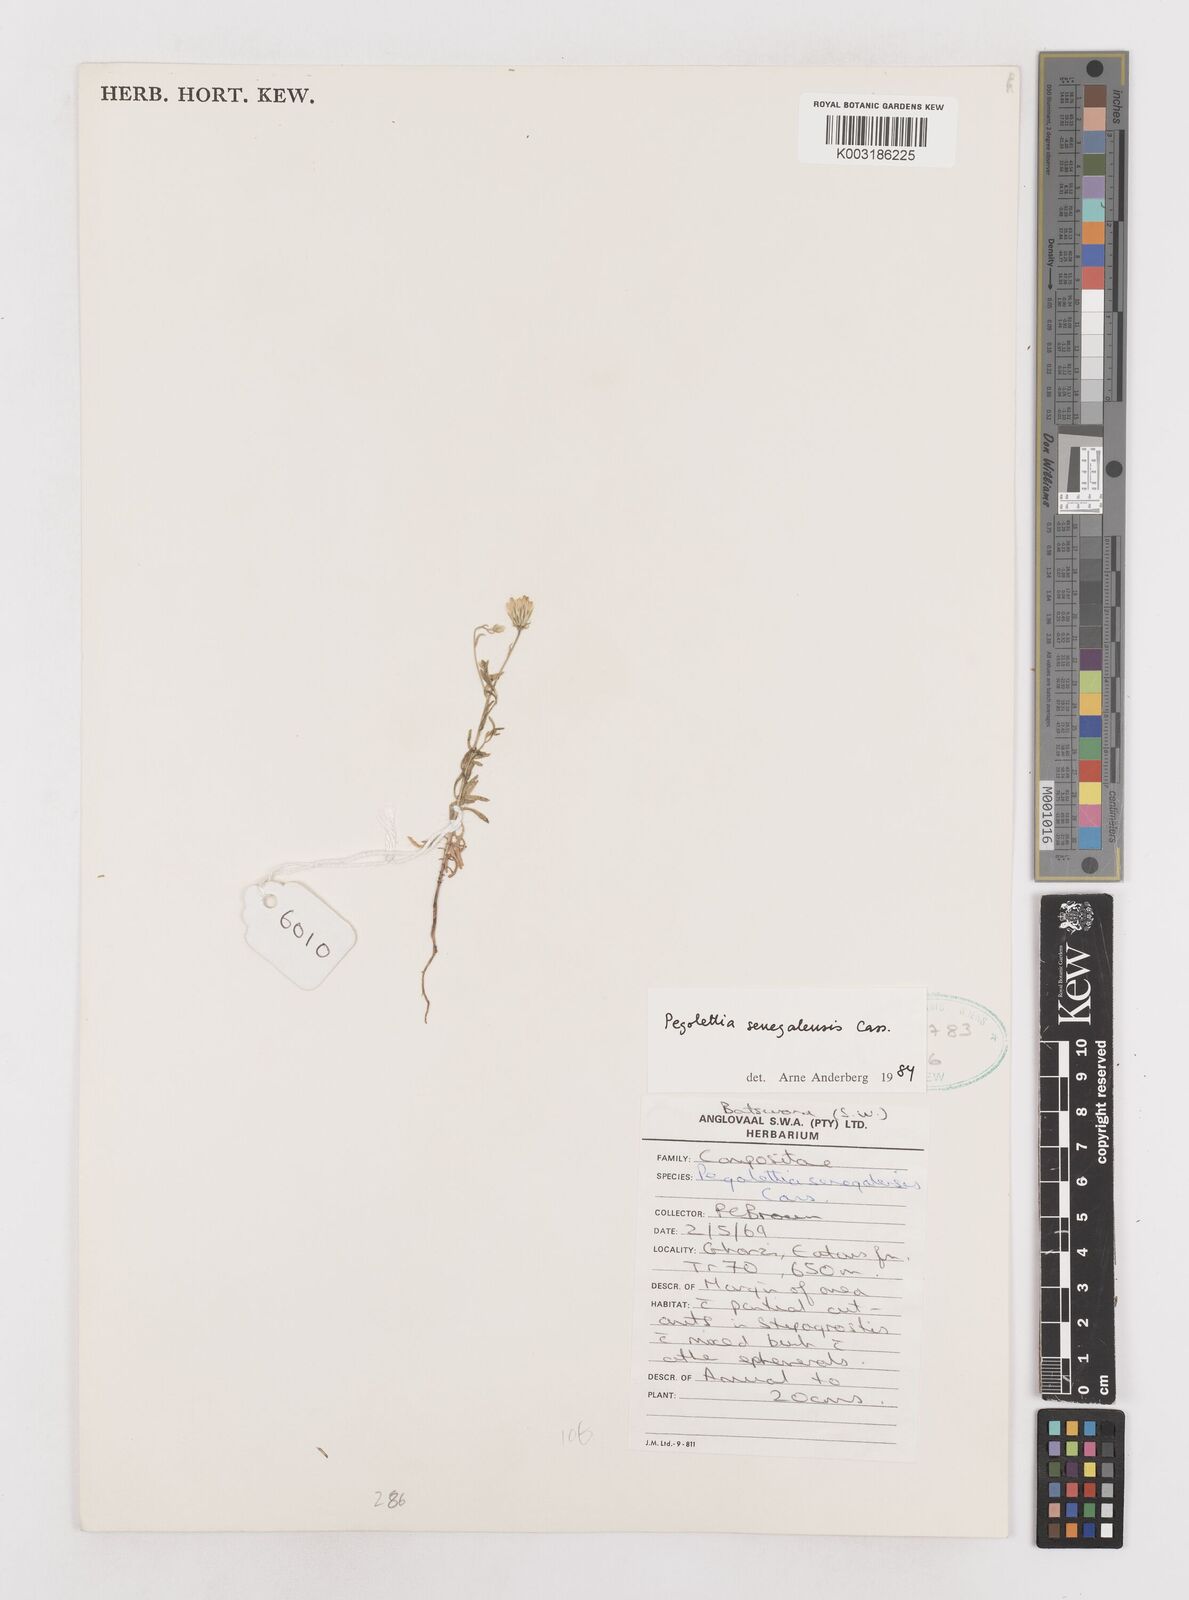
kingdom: Plantae
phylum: Tracheophyta
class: Magnoliopsida
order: Asterales
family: Asteraceae
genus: Pegolettia
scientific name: Pegolettia senegalensis
